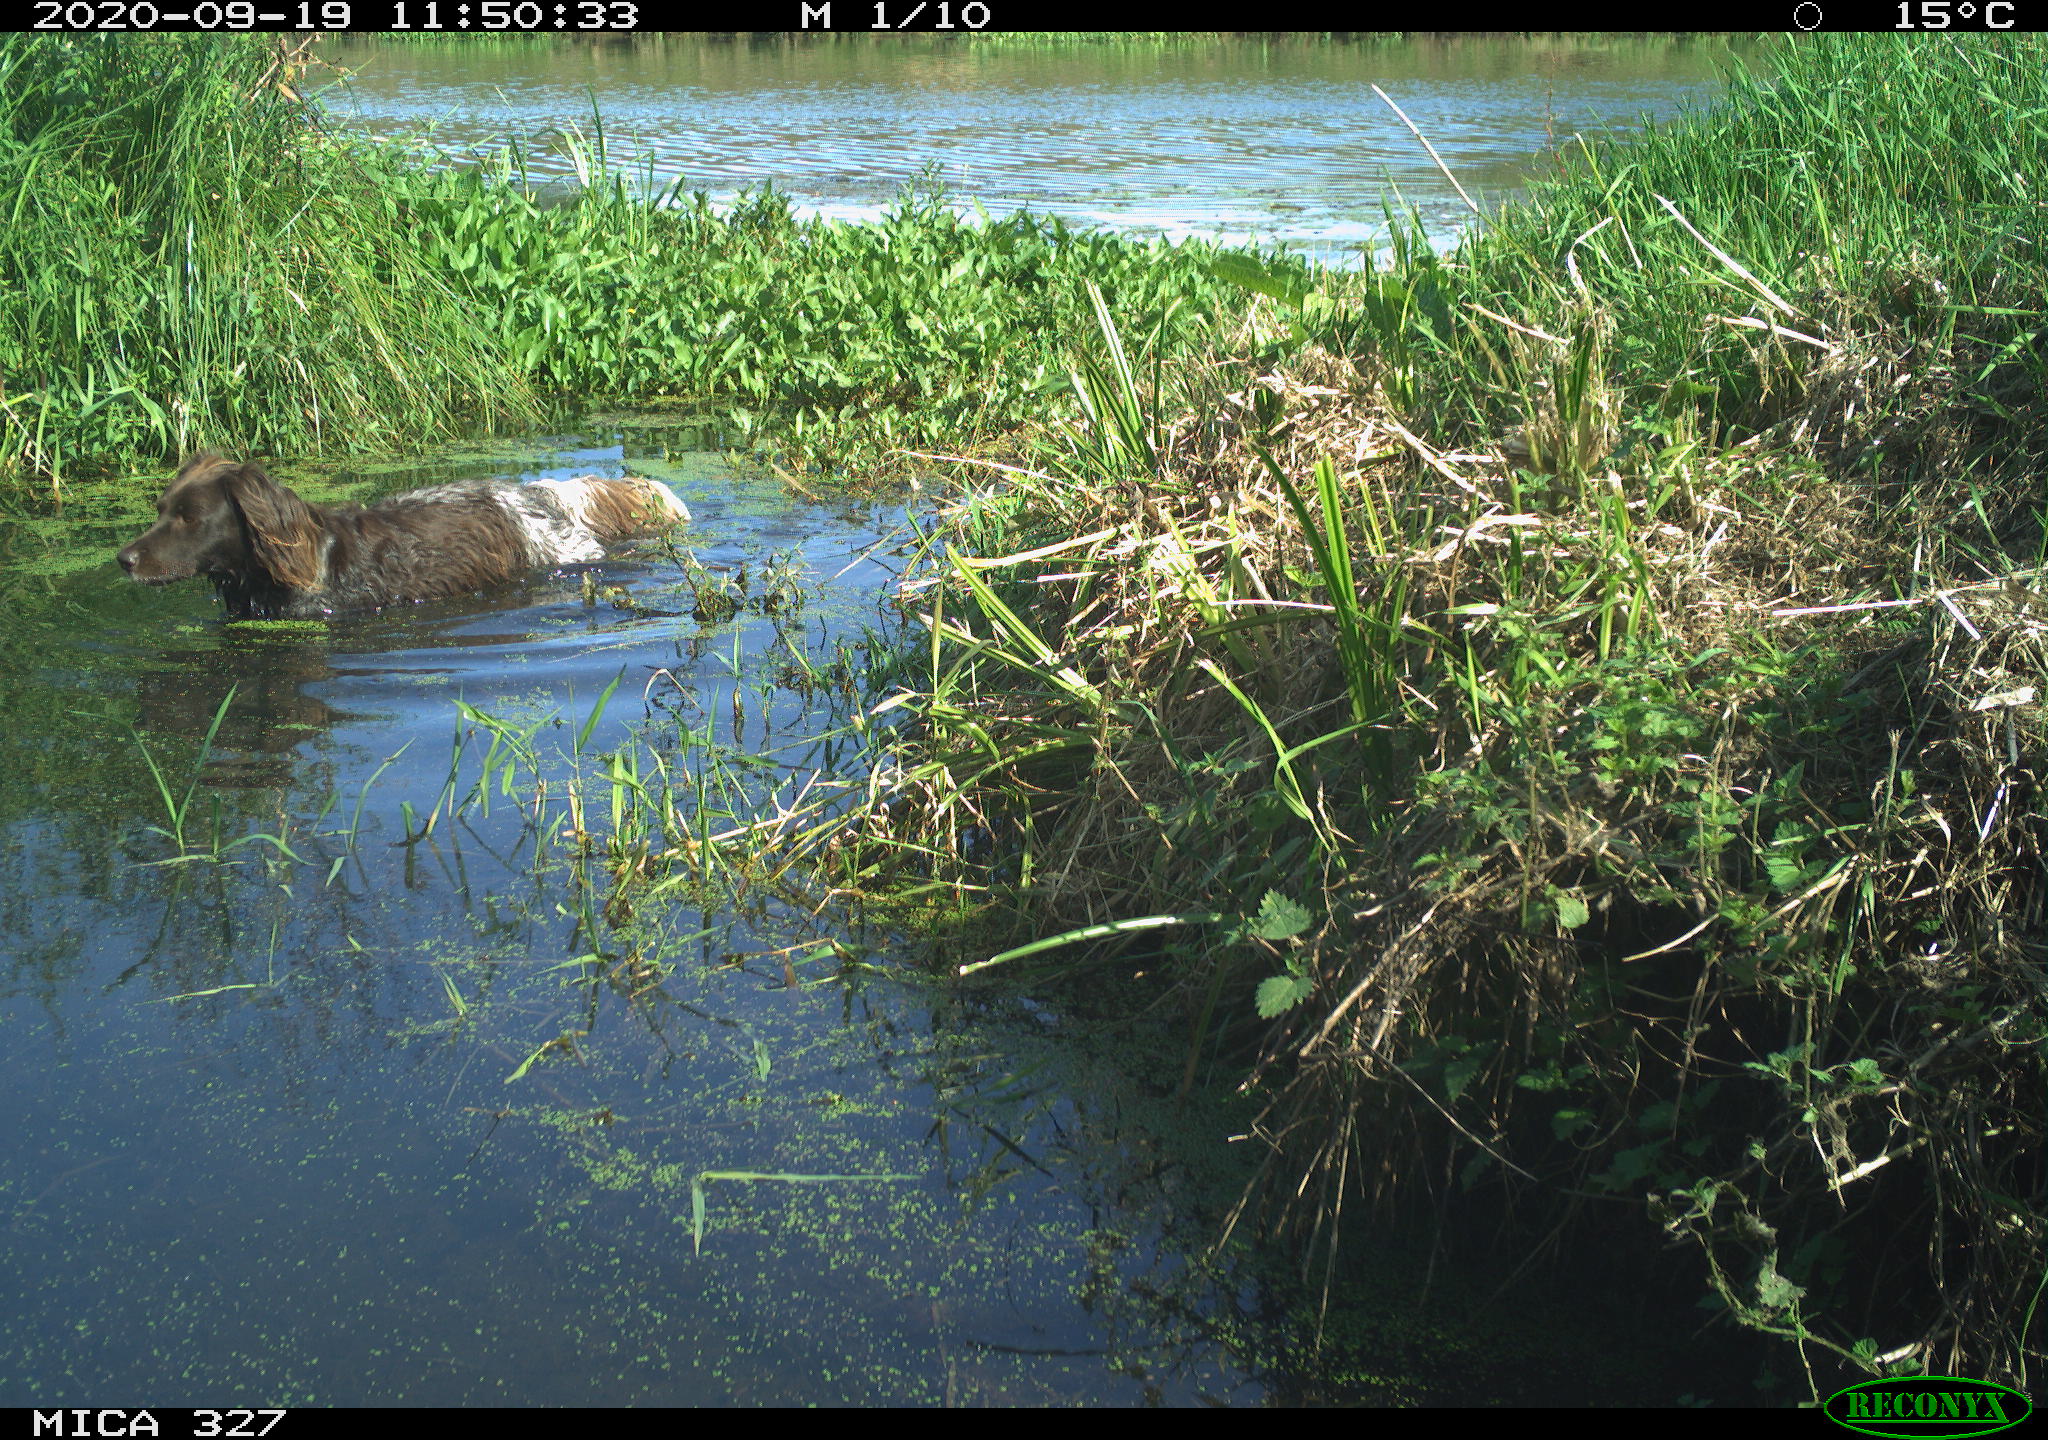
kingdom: Animalia
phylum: Chordata
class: Mammalia
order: Carnivora
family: Canidae
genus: Canis
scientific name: Canis lupus
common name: Gray wolf
